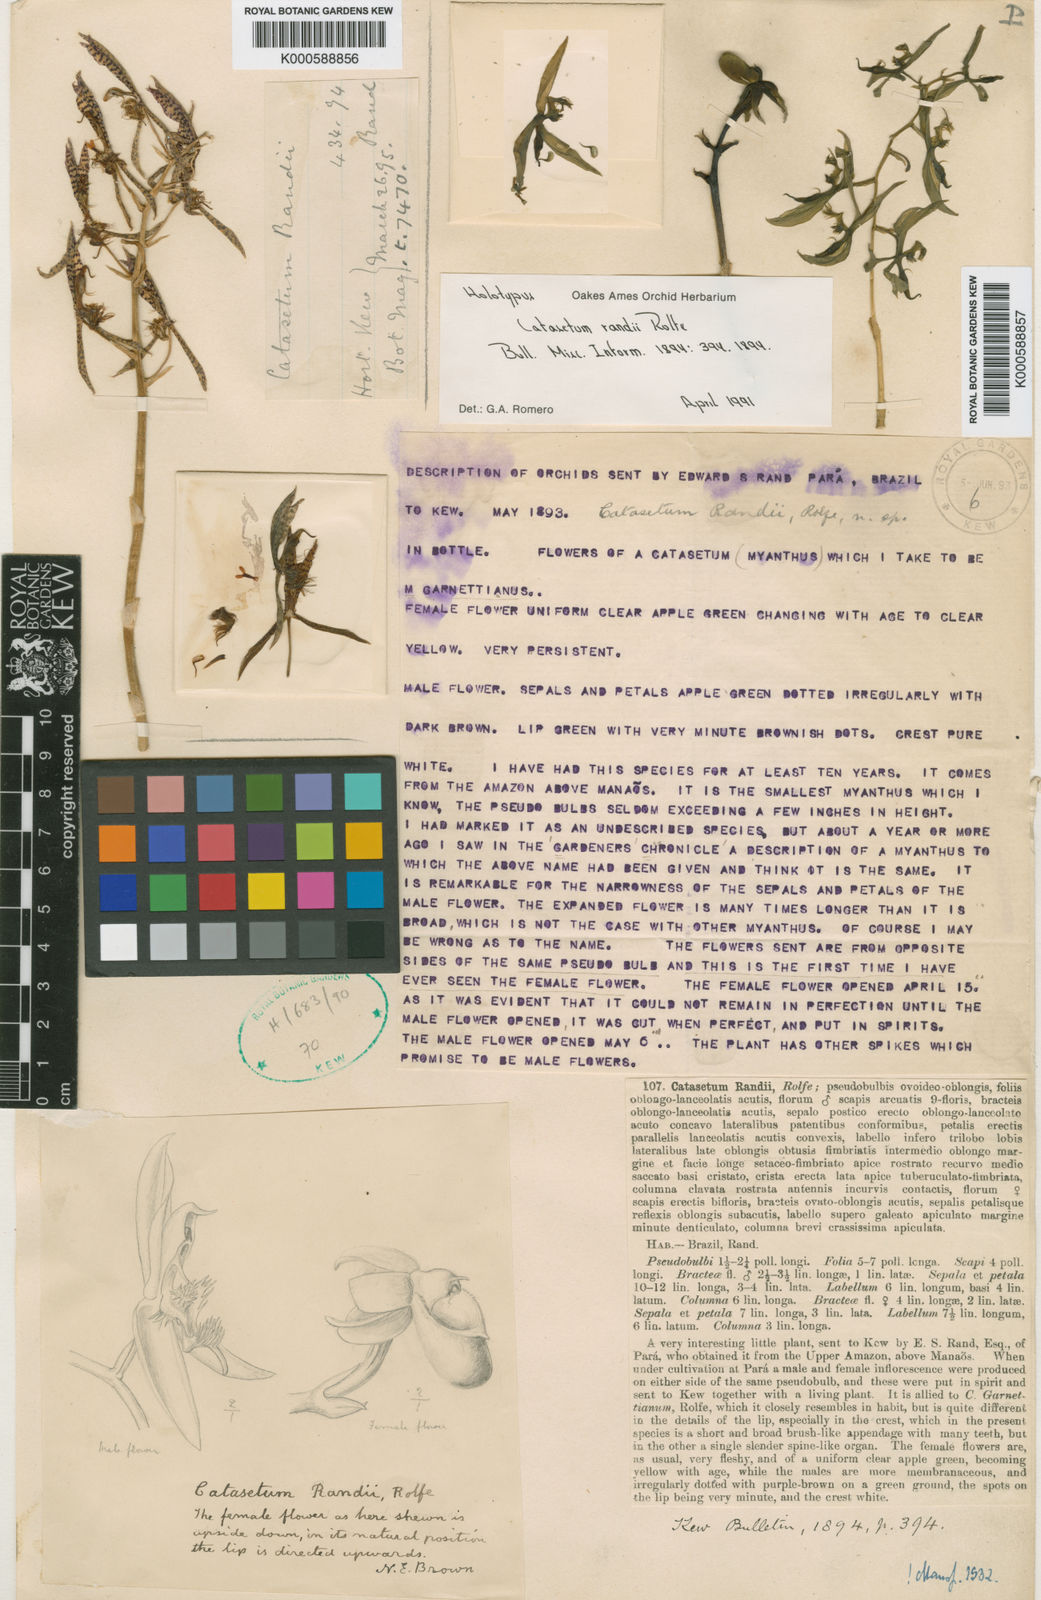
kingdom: Plantae
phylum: Tracheophyta
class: Liliopsida
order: Asparagales
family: Orchidaceae
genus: Catasetum
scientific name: Catasetum randii
